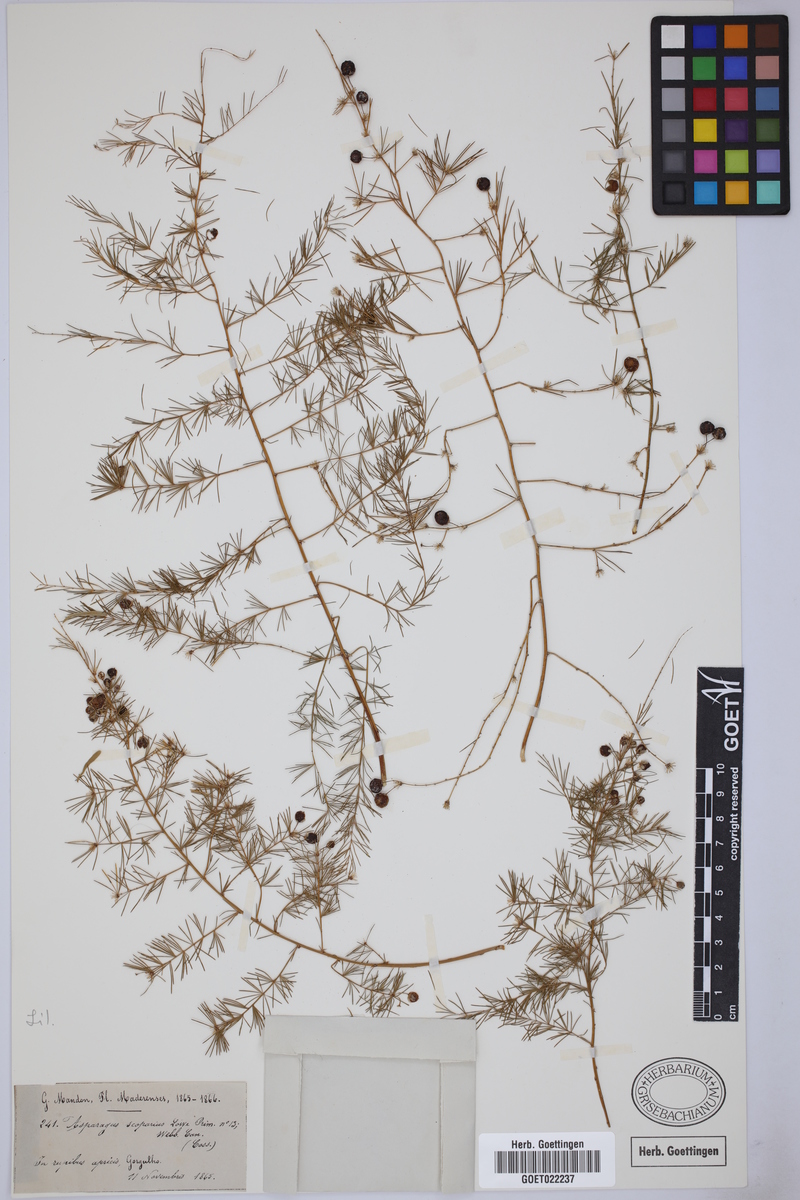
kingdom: Plantae
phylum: Tracheophyta
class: Liliopsida
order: Asparagales
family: Asparagaceae
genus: Asparagus
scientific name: Asparagus scoparius
